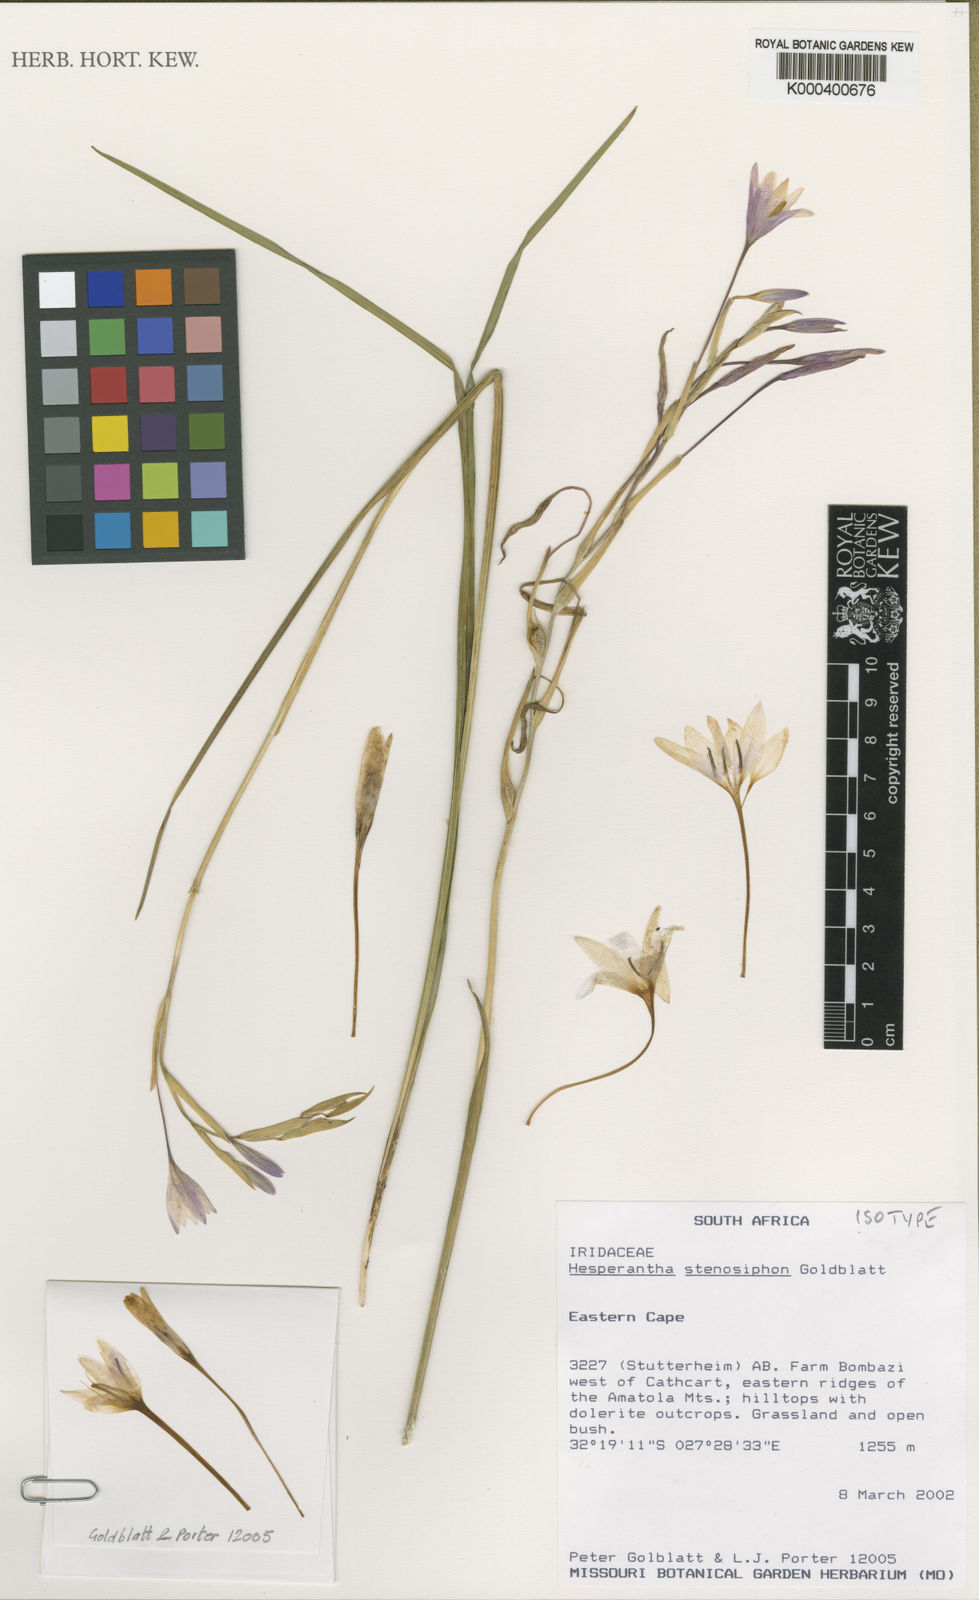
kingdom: Plantae
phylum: Tracheophyta
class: Liliopsida
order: Asparagales
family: Iridaceae
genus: Hesperantha
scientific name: Hesperantha stenosiphon
